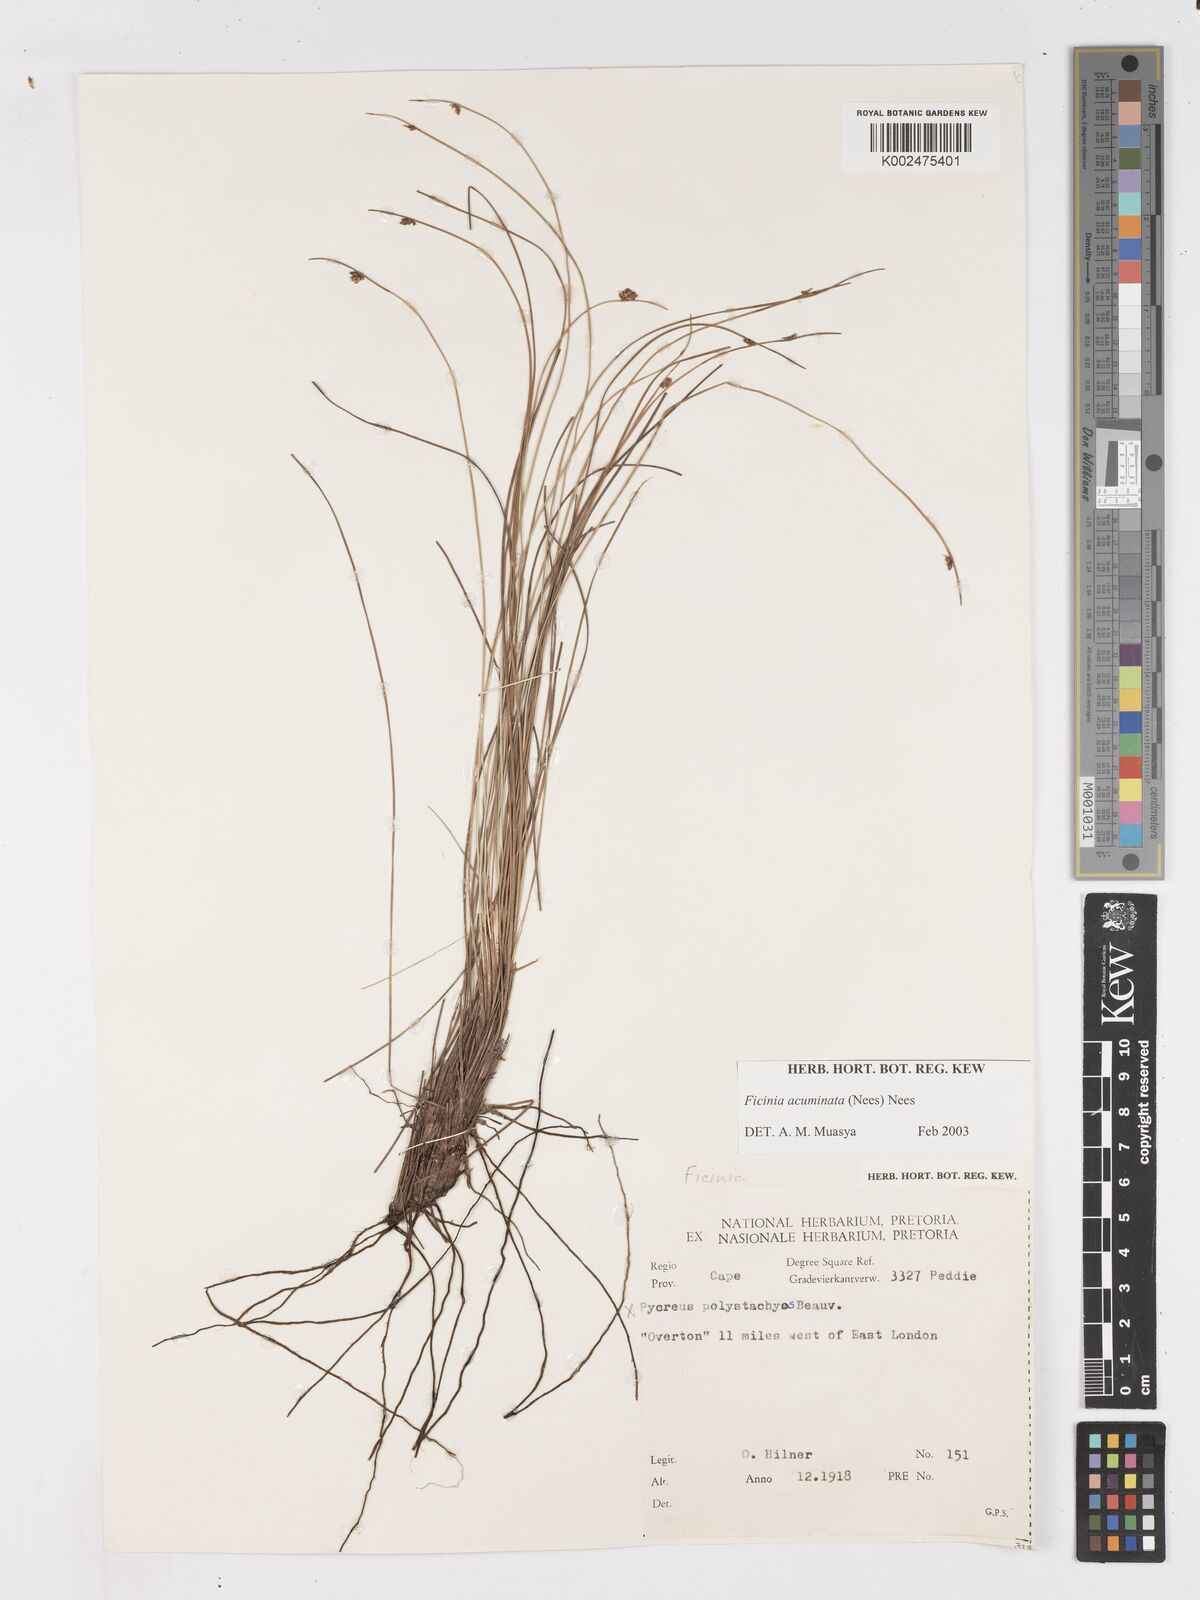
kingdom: Plantae
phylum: Tracheophyta
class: Liliopsida
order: Poales
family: Cyperaceae
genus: Ficinia
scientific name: Ficinia acuminata
